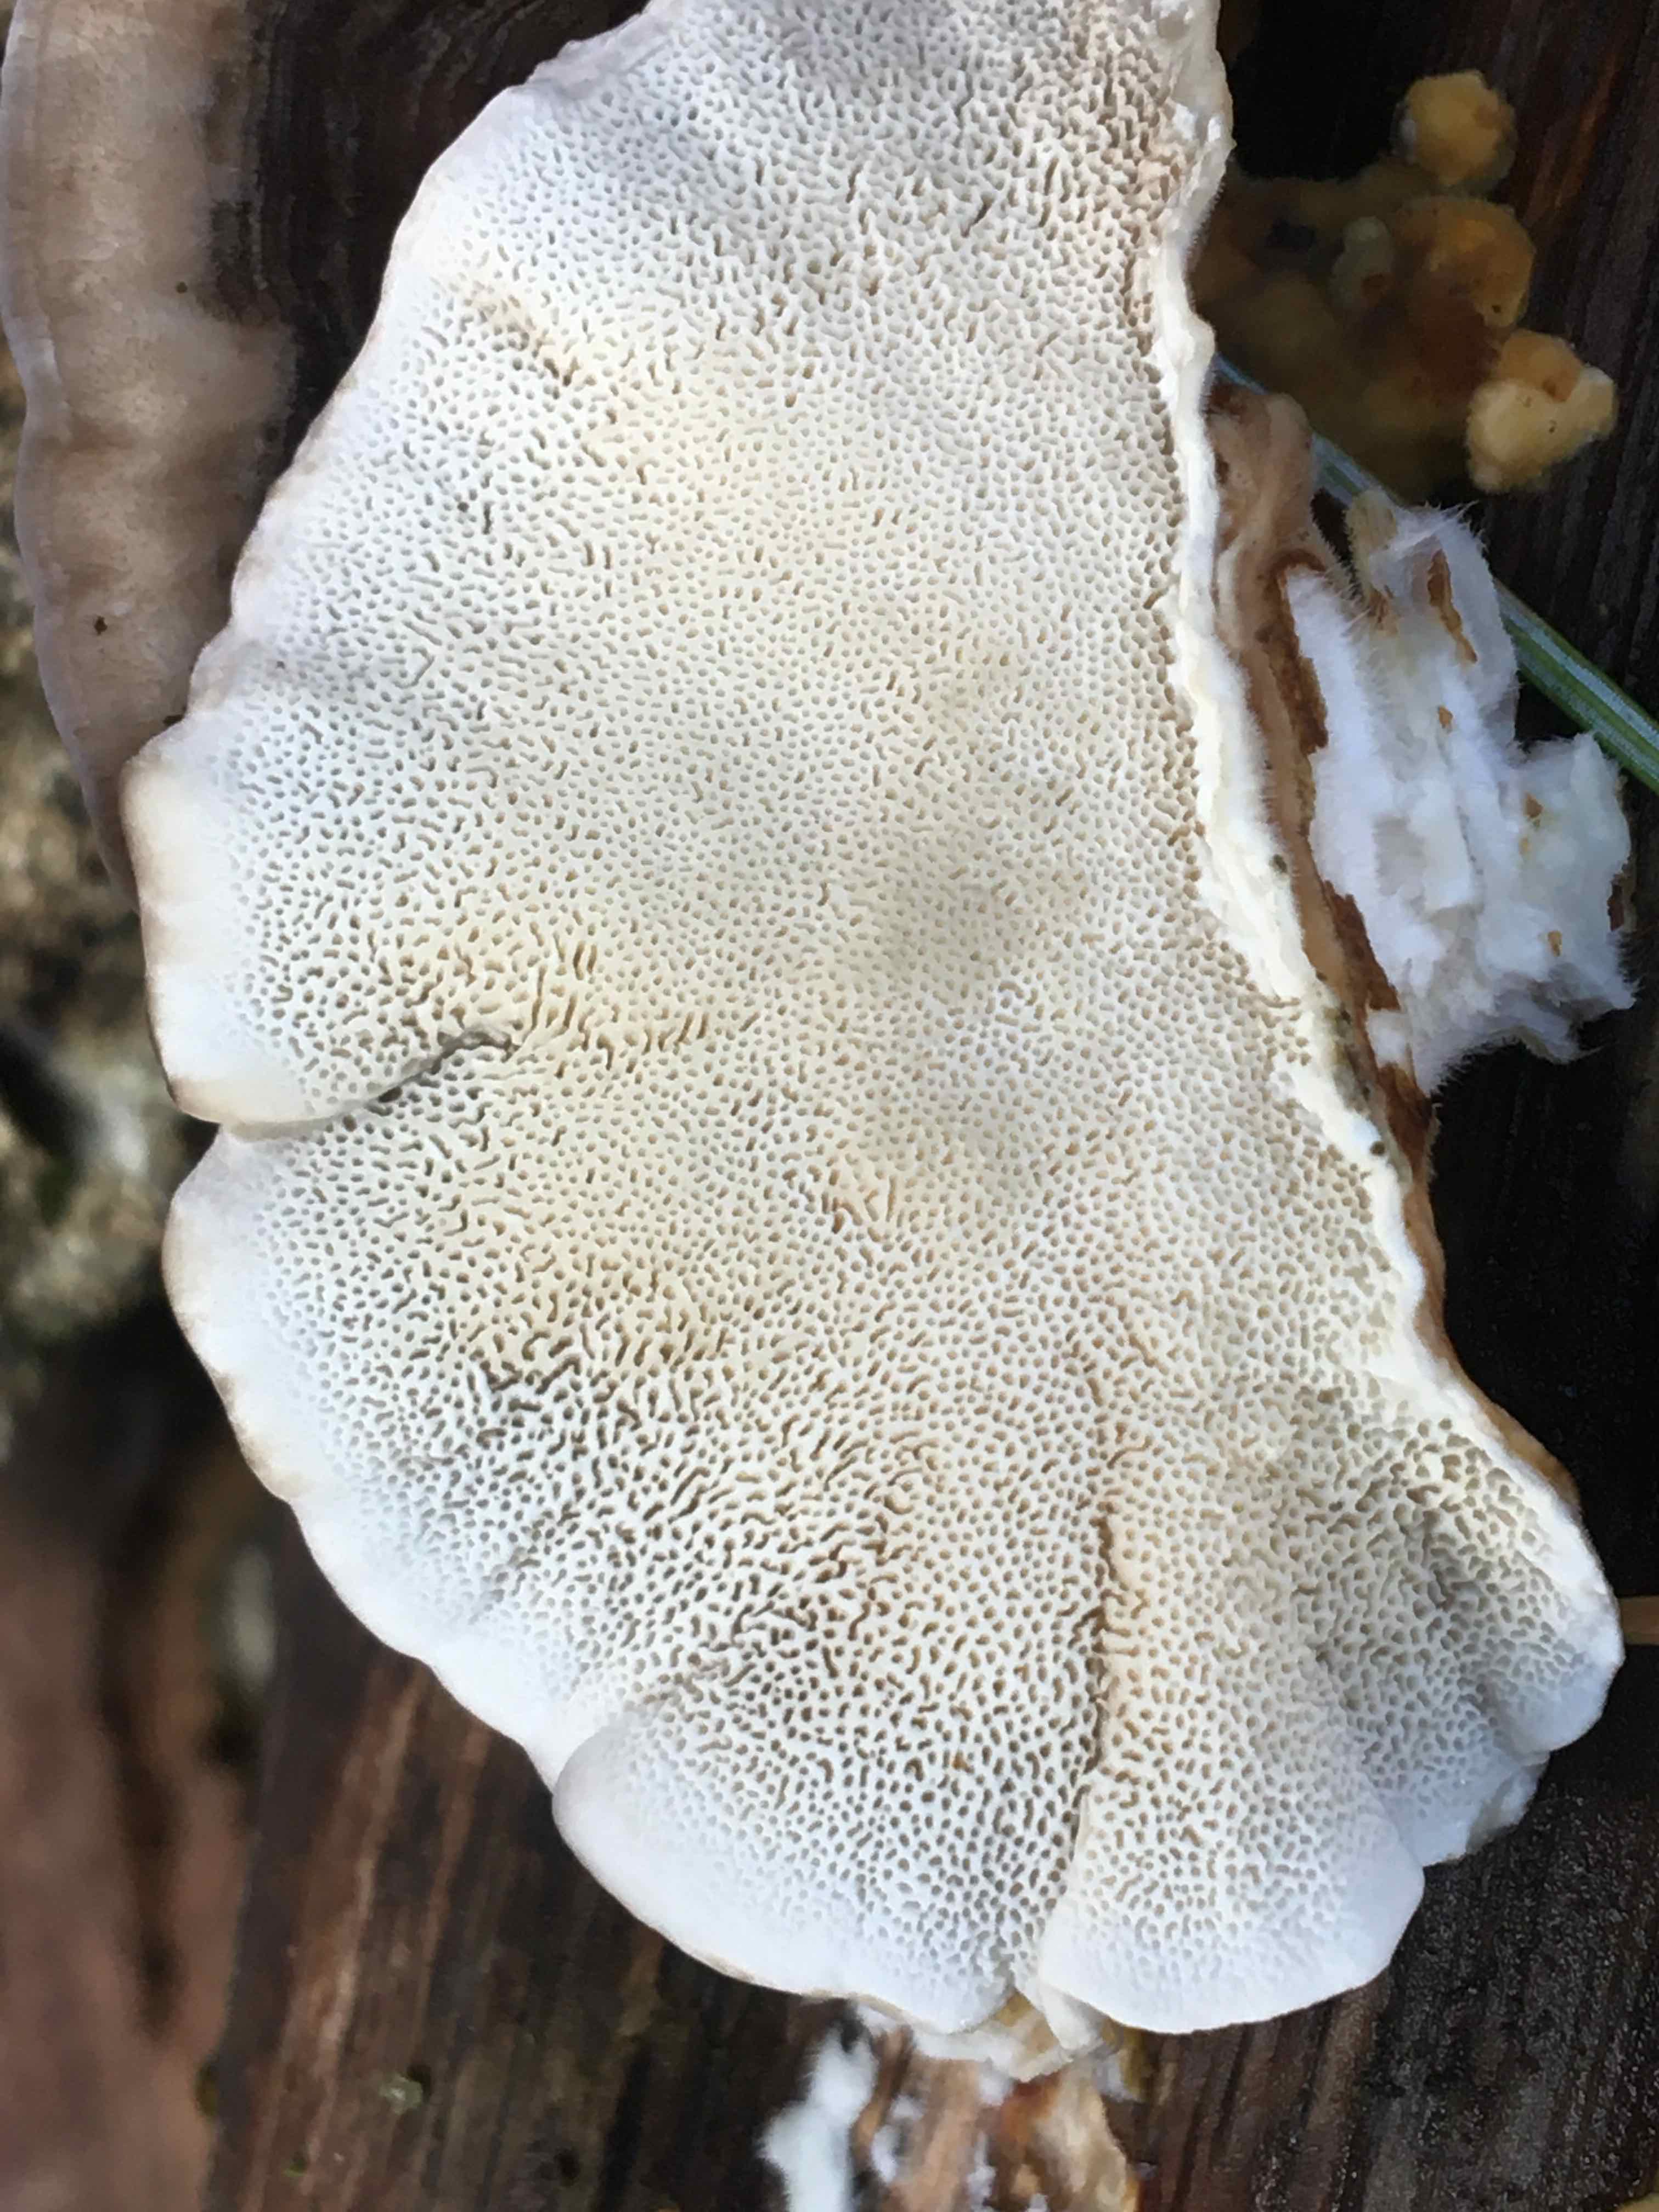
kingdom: Fungi
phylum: Basidiomycota
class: Agaricomycetes
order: Polyporales
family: Polyporaceae
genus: Trametes
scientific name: Trametes versicolor
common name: broget læderporesvamp
